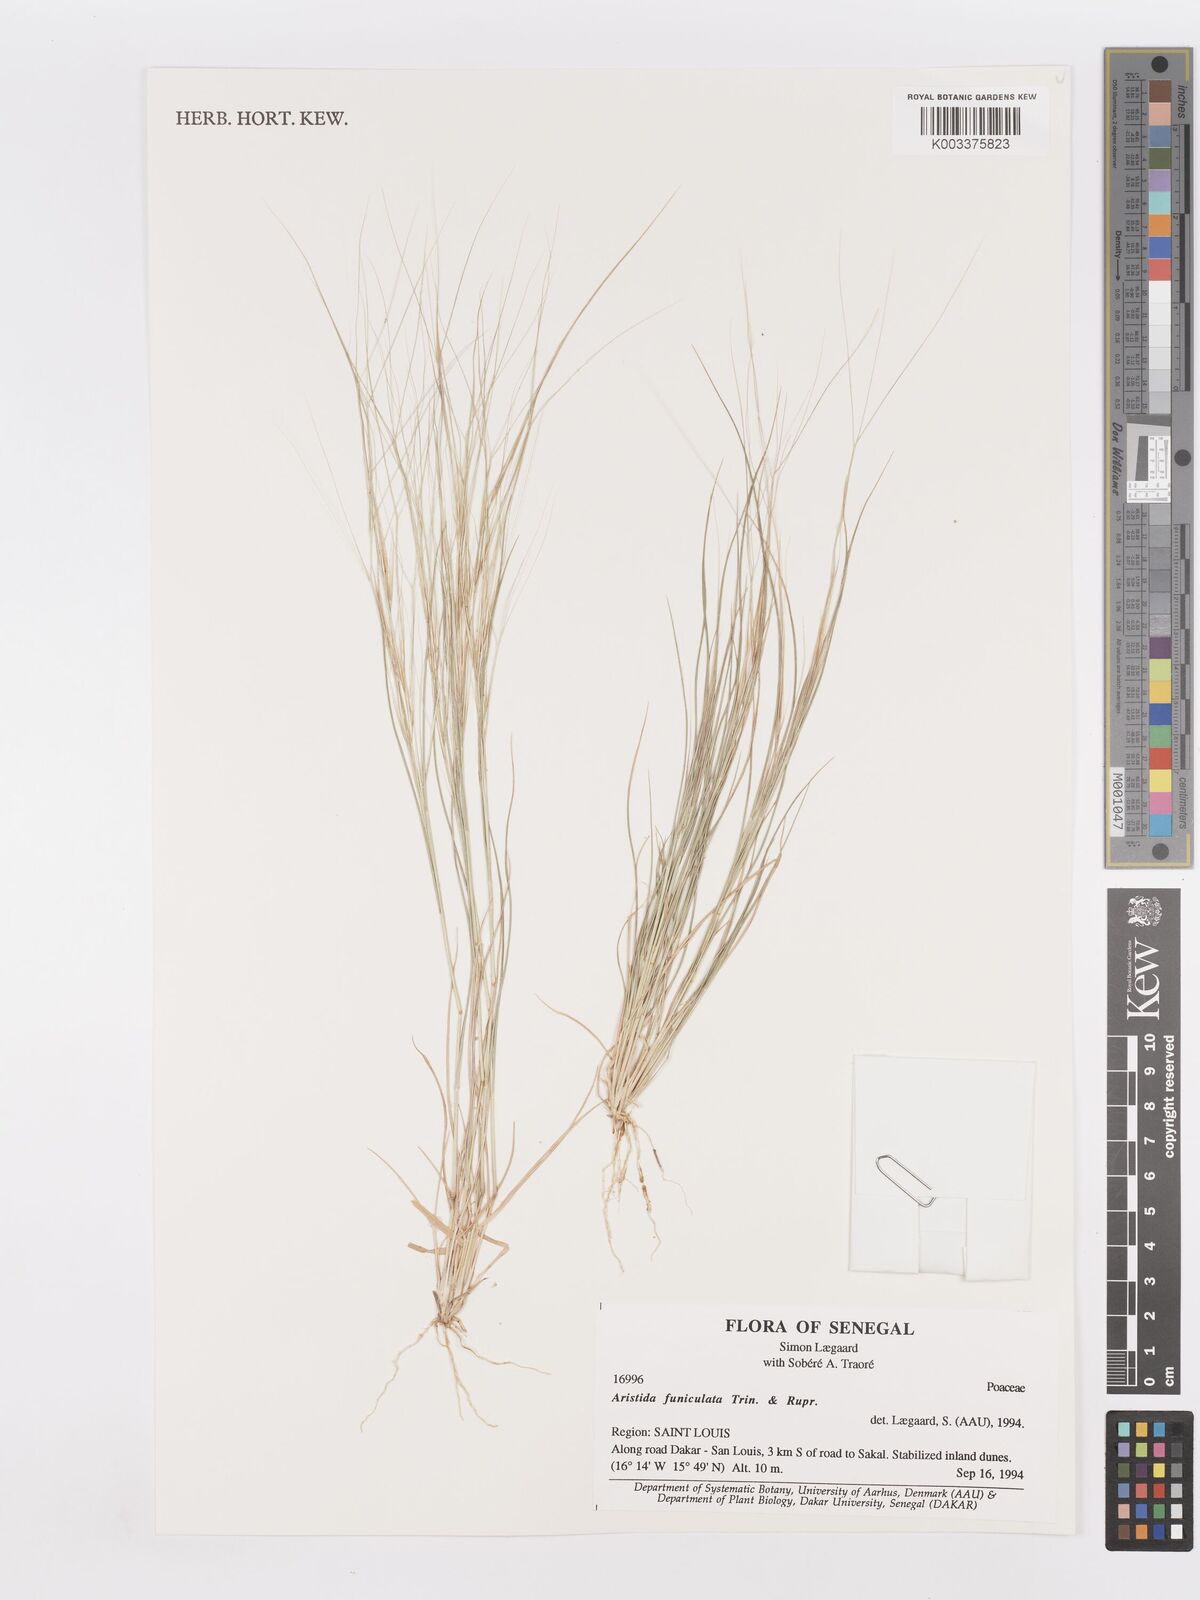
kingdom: Plantae
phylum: Tracheophyta
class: Liliopsida
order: Poales
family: Poaceae
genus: Aristida
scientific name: Aristida funiculata
